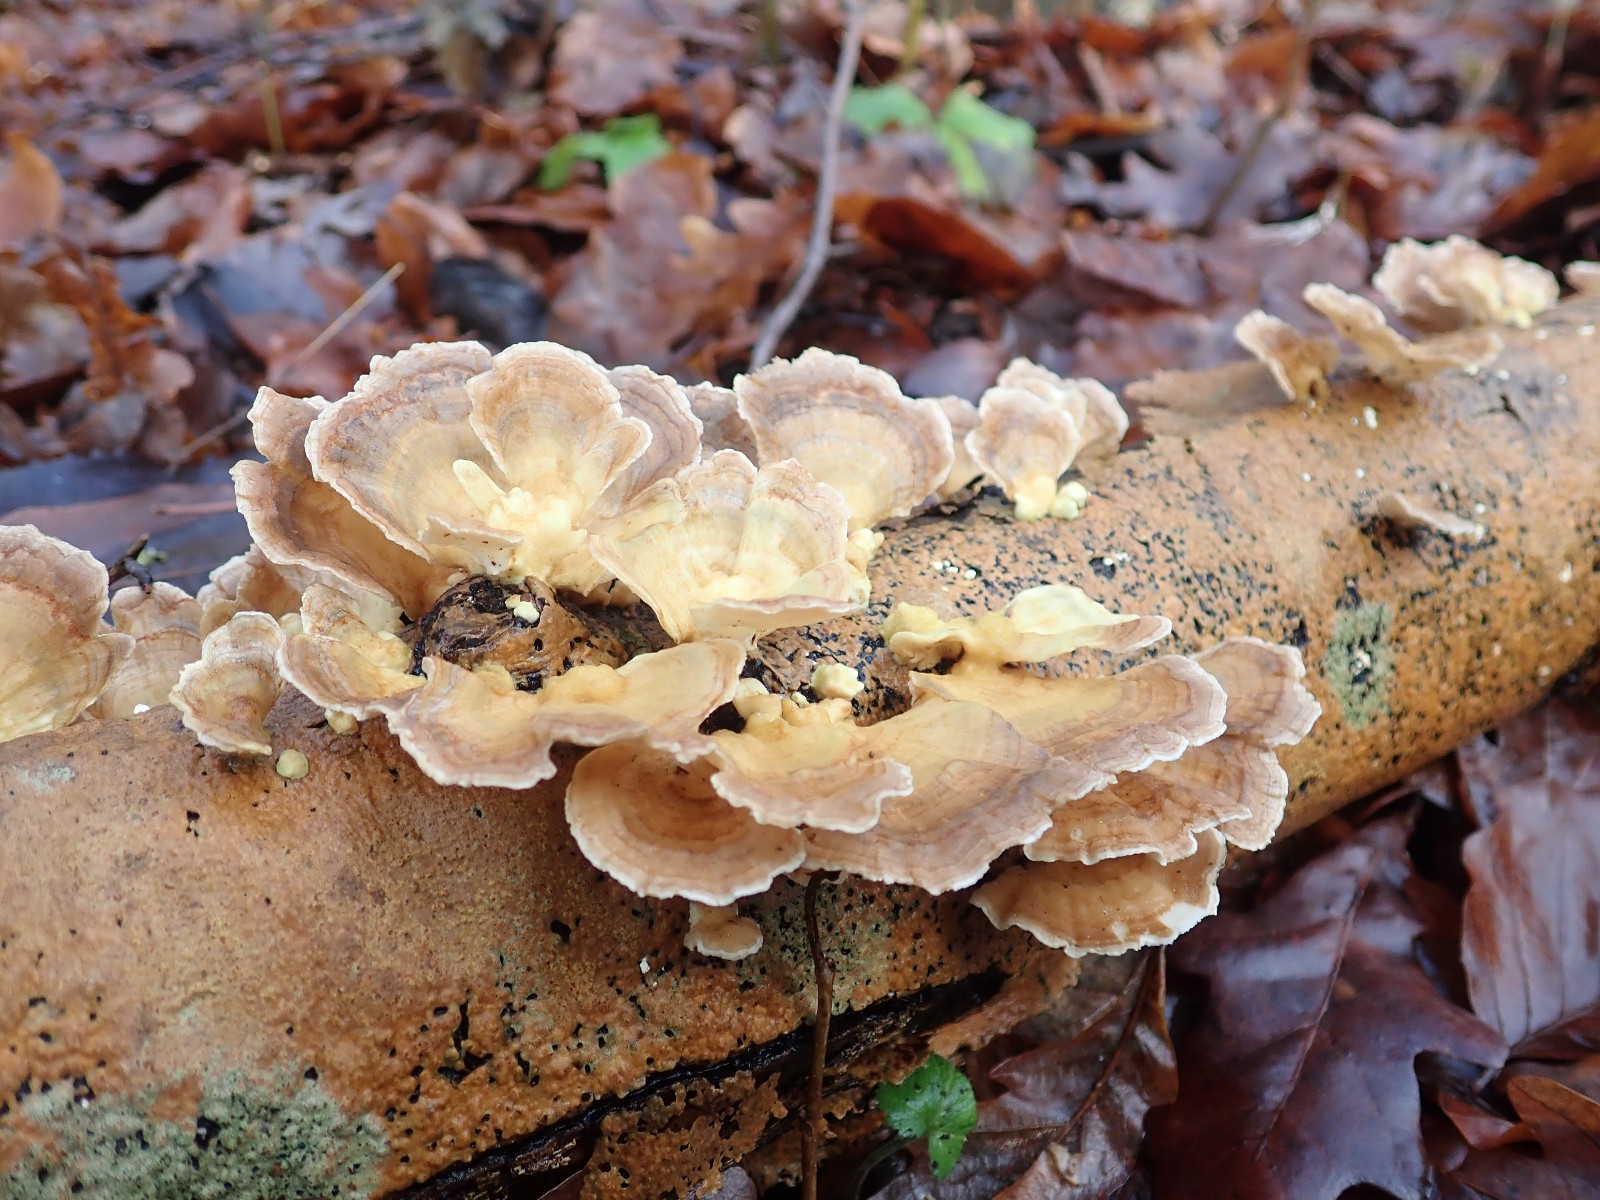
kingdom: Fungi
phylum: Basidiomycota
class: Agaricomycetes
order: Polyporales
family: Polyporaceae
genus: Trametes
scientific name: Trametes versicolor
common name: broget læderporesvamp
